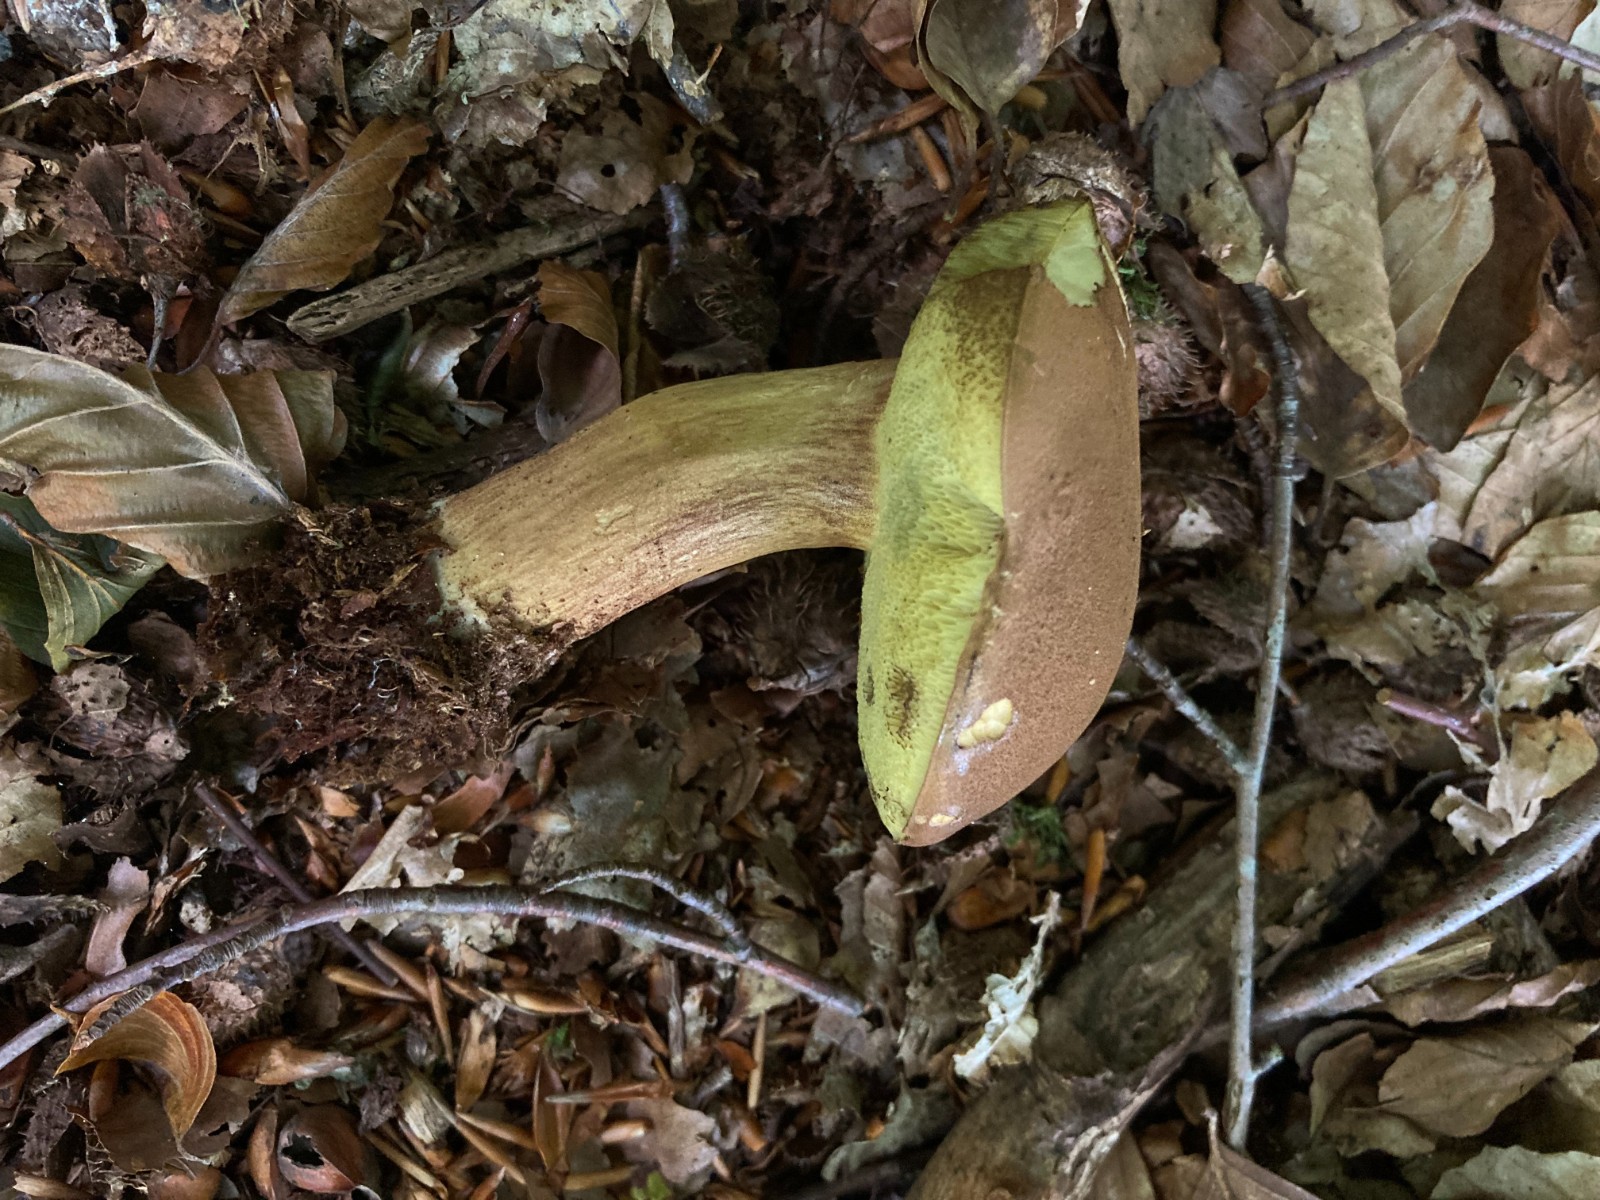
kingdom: Fungi
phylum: Basidiomycota
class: Agaricomycetes
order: Boletales
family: Boletaceae
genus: Imleria
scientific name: Imleria badia
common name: brunstokket rørhat
